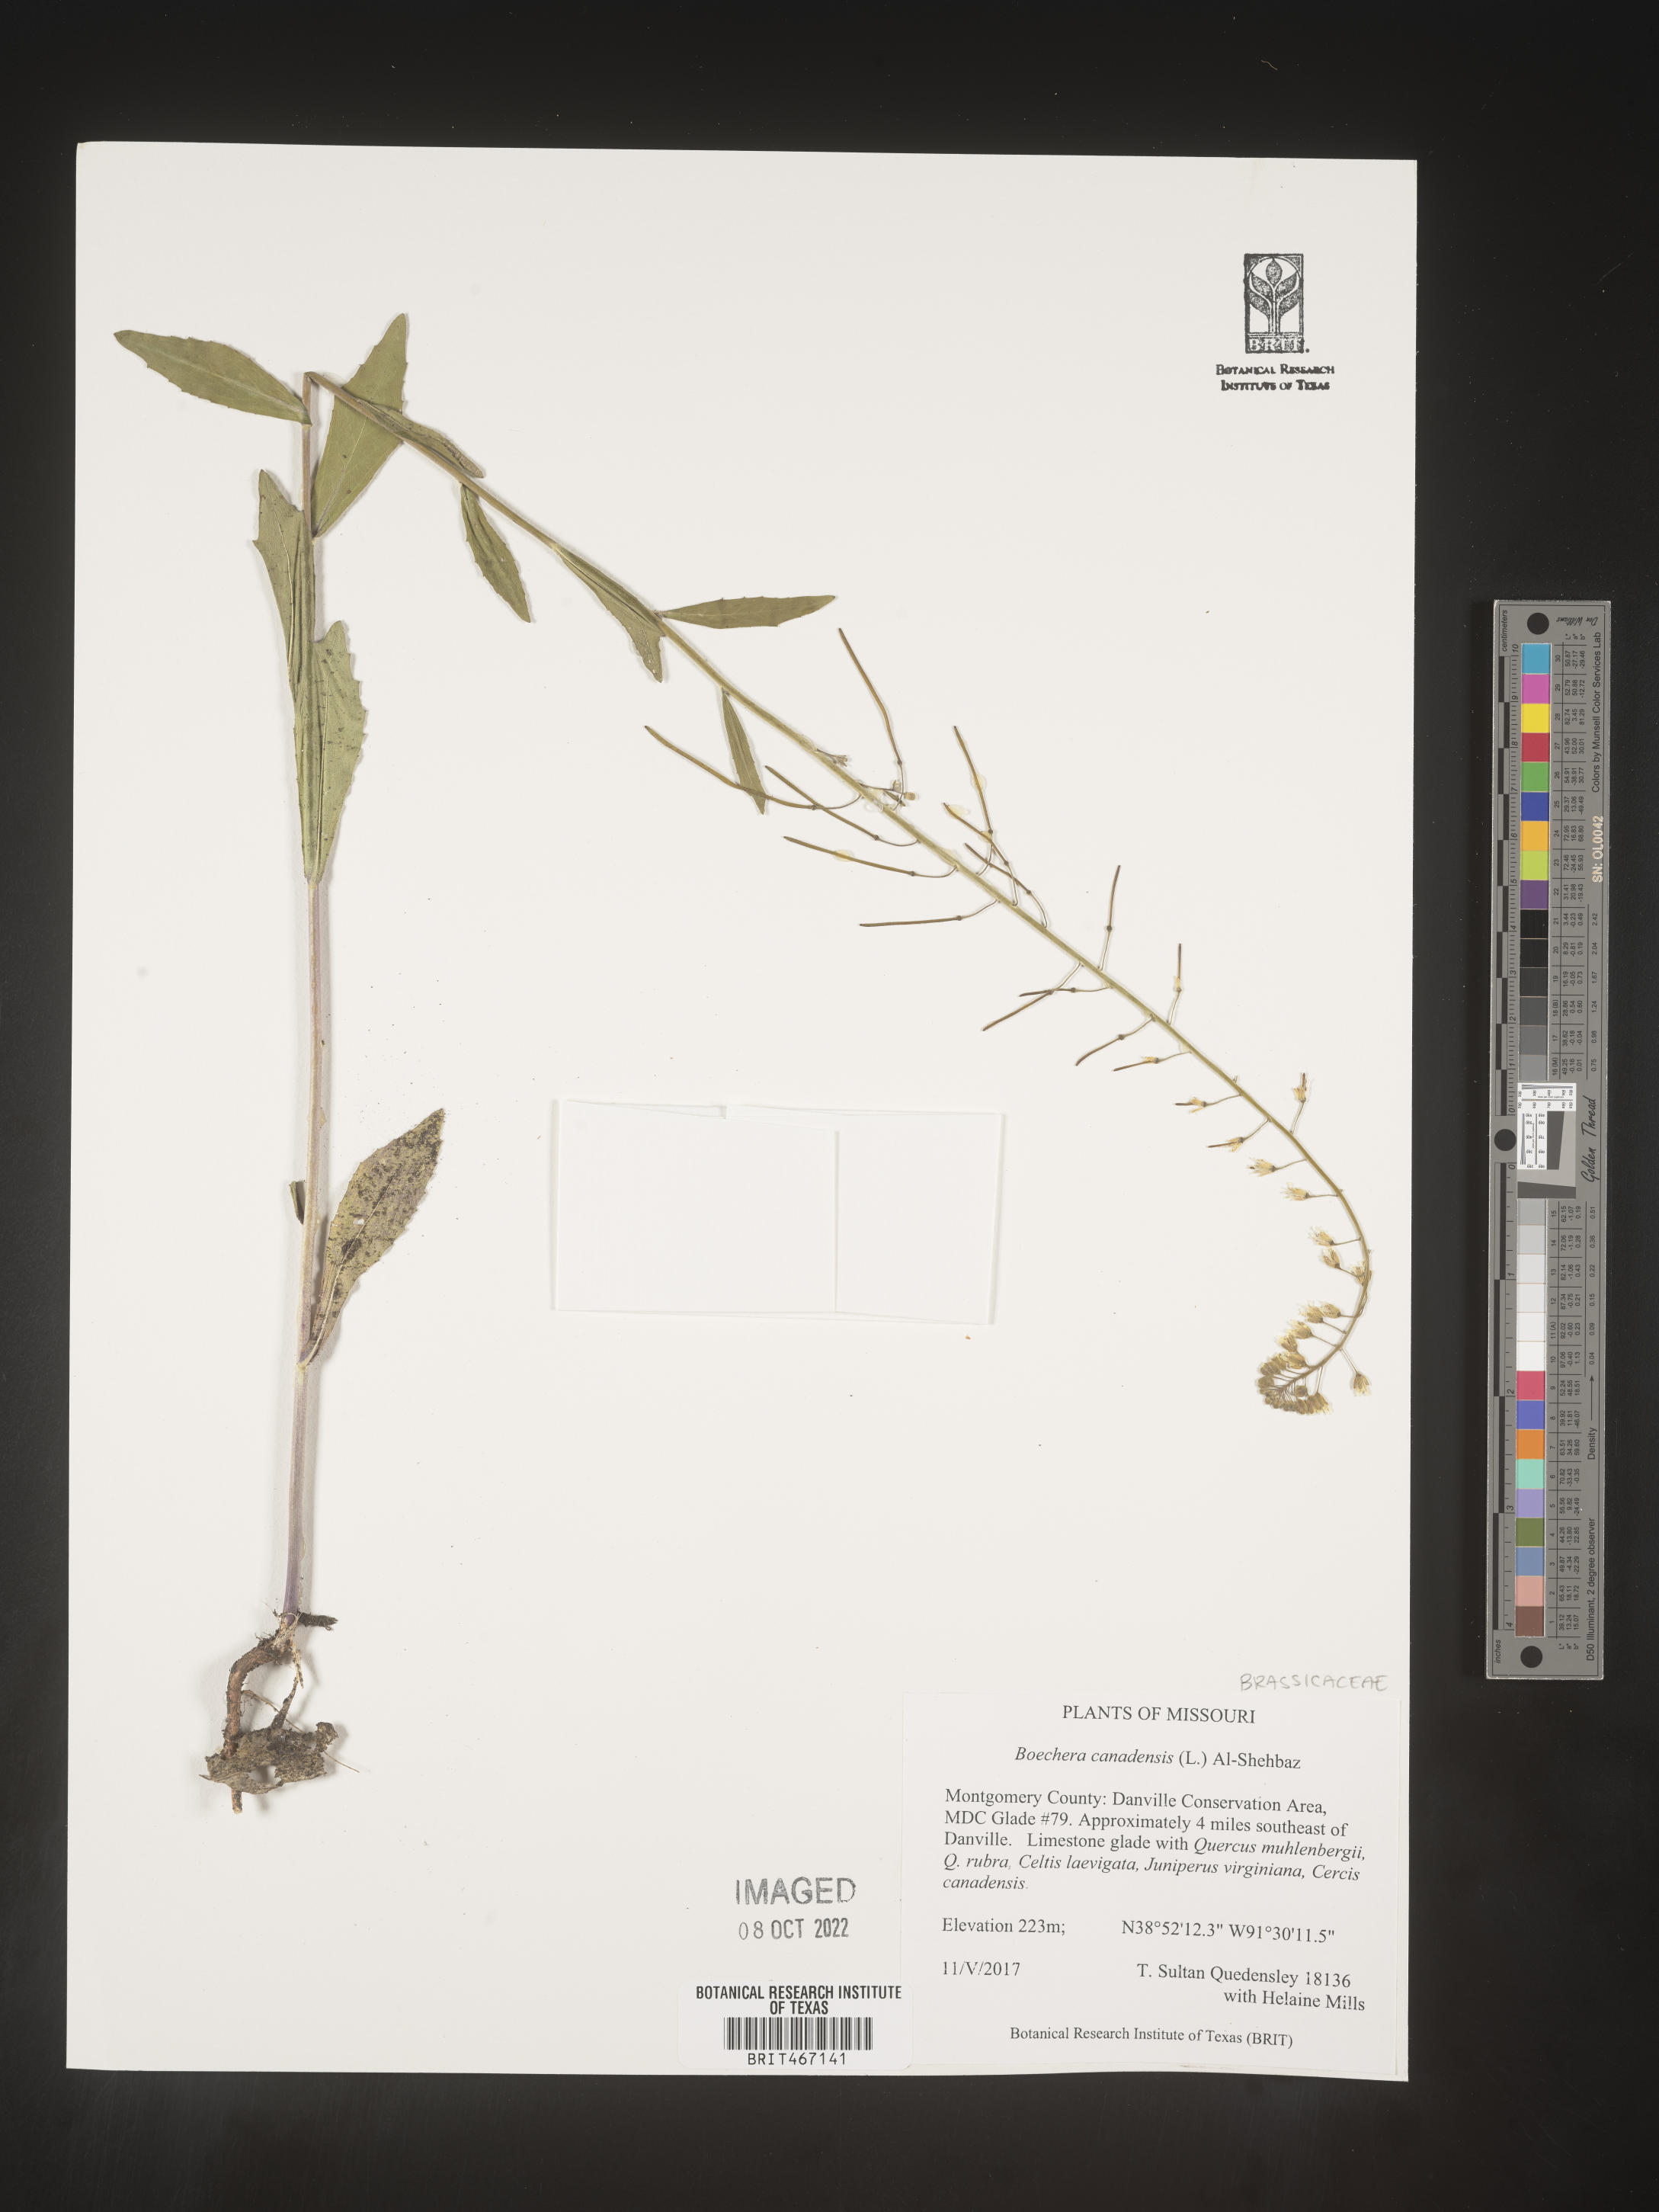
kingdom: Plantae
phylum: Tracheophyta
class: Magnoliopsida
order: Brassicales
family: Brassicaceae
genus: Boechera
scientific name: Boechera
